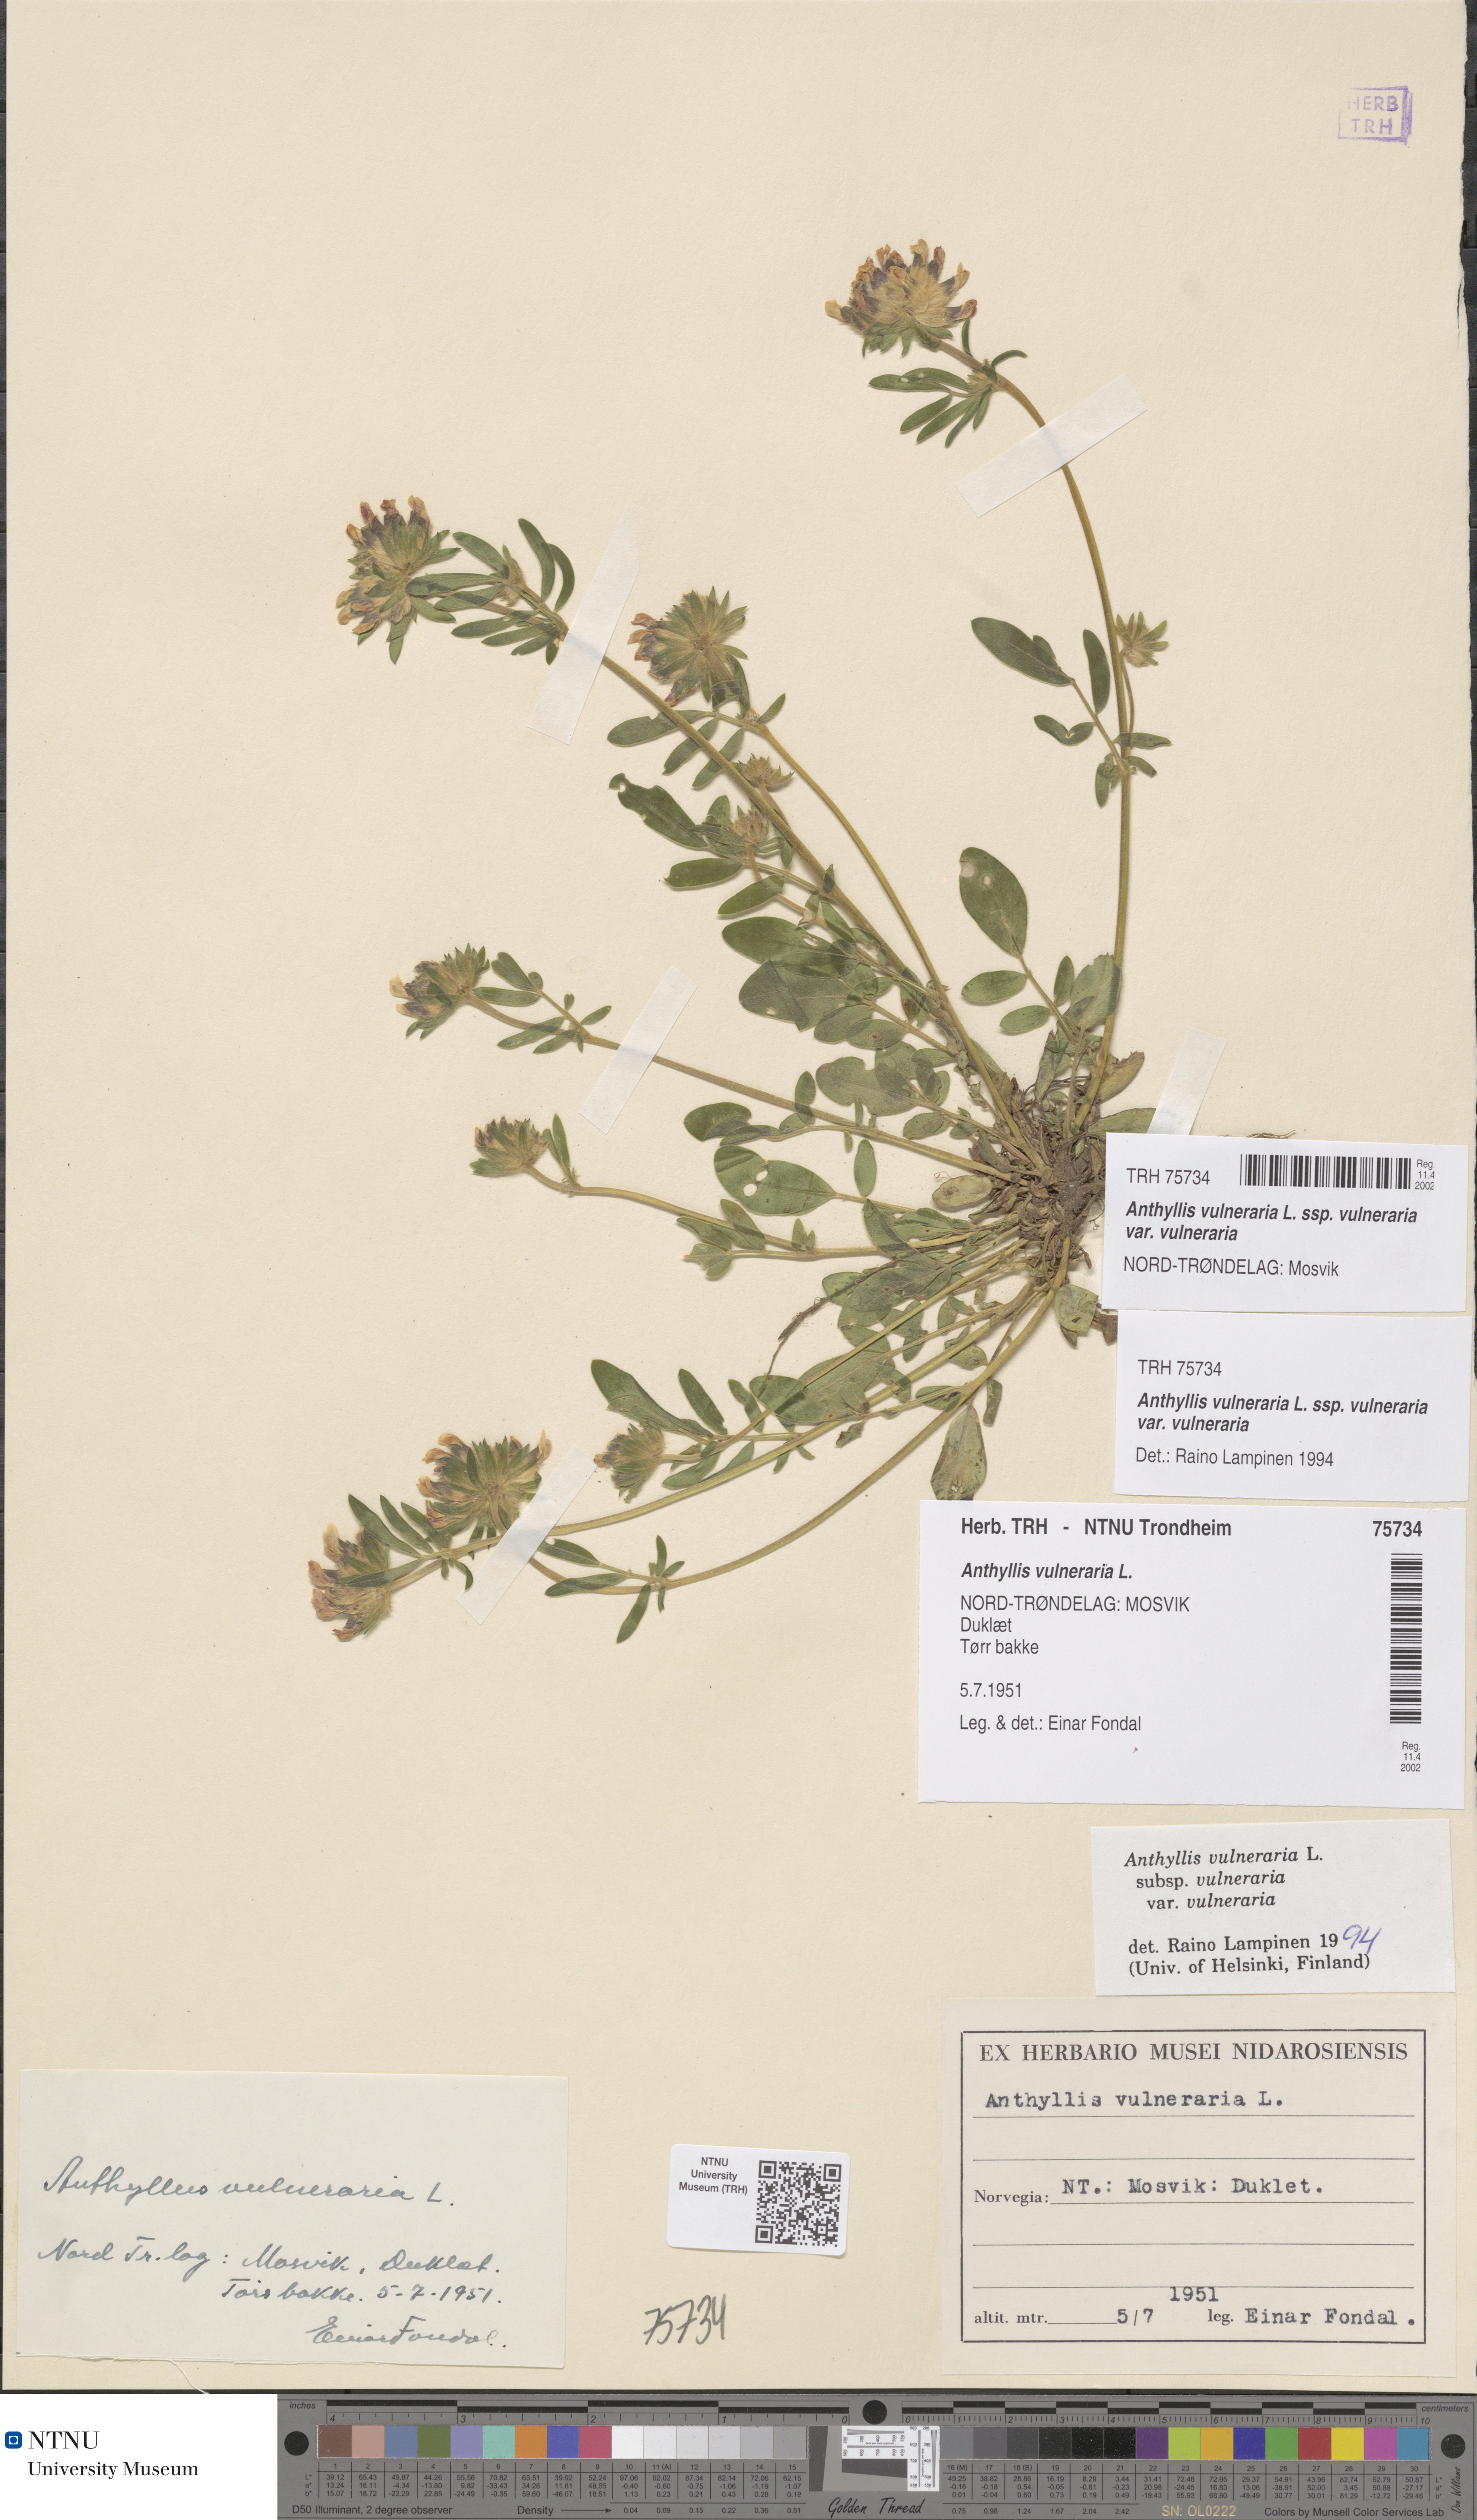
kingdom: Plantae
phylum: Tracheophyta
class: Magnoliopsida
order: Fabales
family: Fabaceae
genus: Anthyllis
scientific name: Anthyllis vulneraria
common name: Kidney vetch
